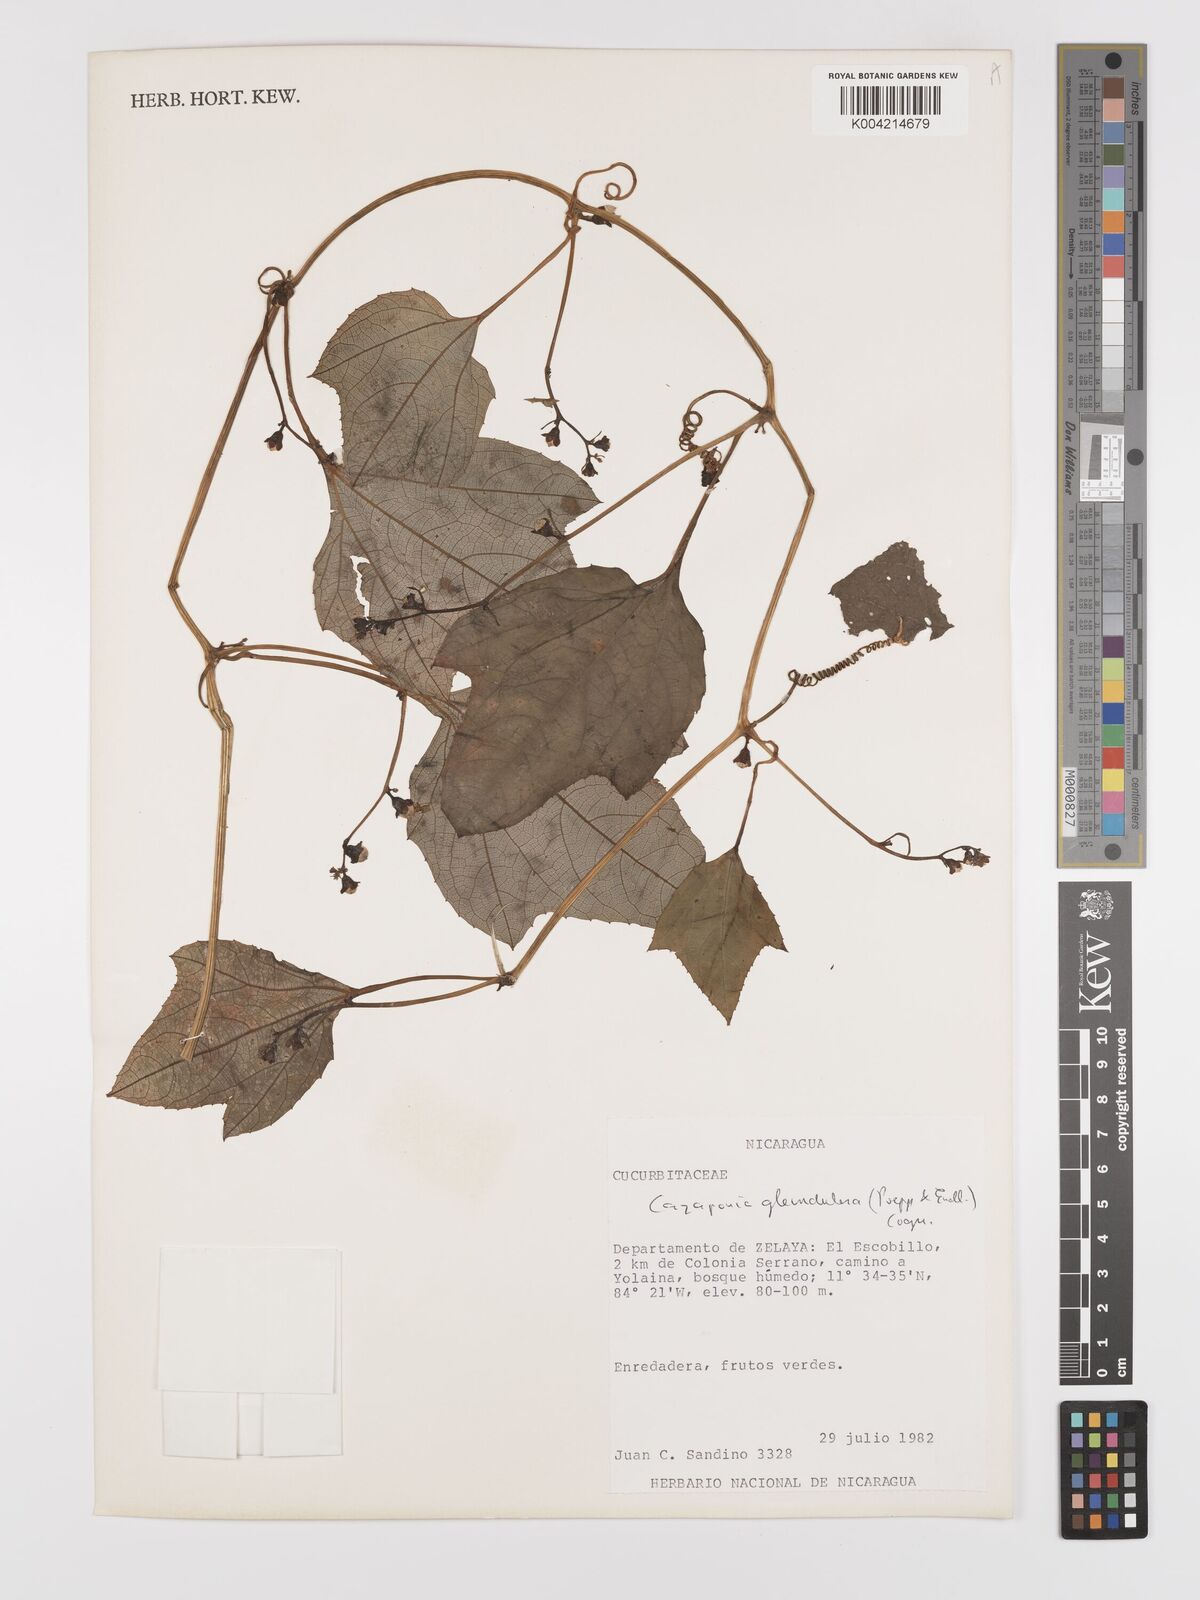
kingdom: Plantae
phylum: Tracheophyta
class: Magnoliopsida
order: Cucurbitales
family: Cucurbitaceae
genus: Cayaponia
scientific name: Cayaponia glandulosa
